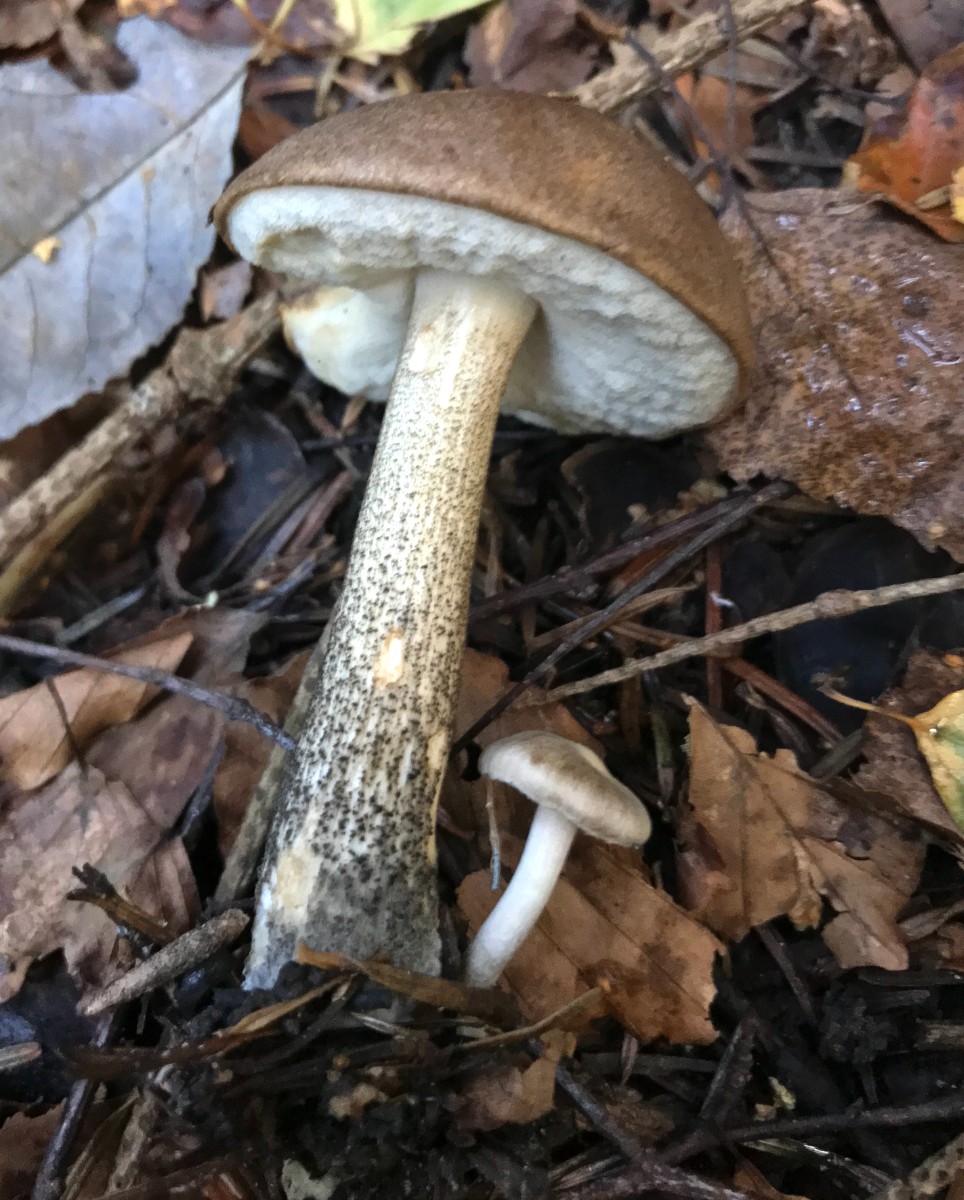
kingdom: Fungi
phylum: Basidiomycota
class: Agaricomycetes
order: Boletales
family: Boletaceae
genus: Leccinum
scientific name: Leccinum scabrum
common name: brun skælrørhat
